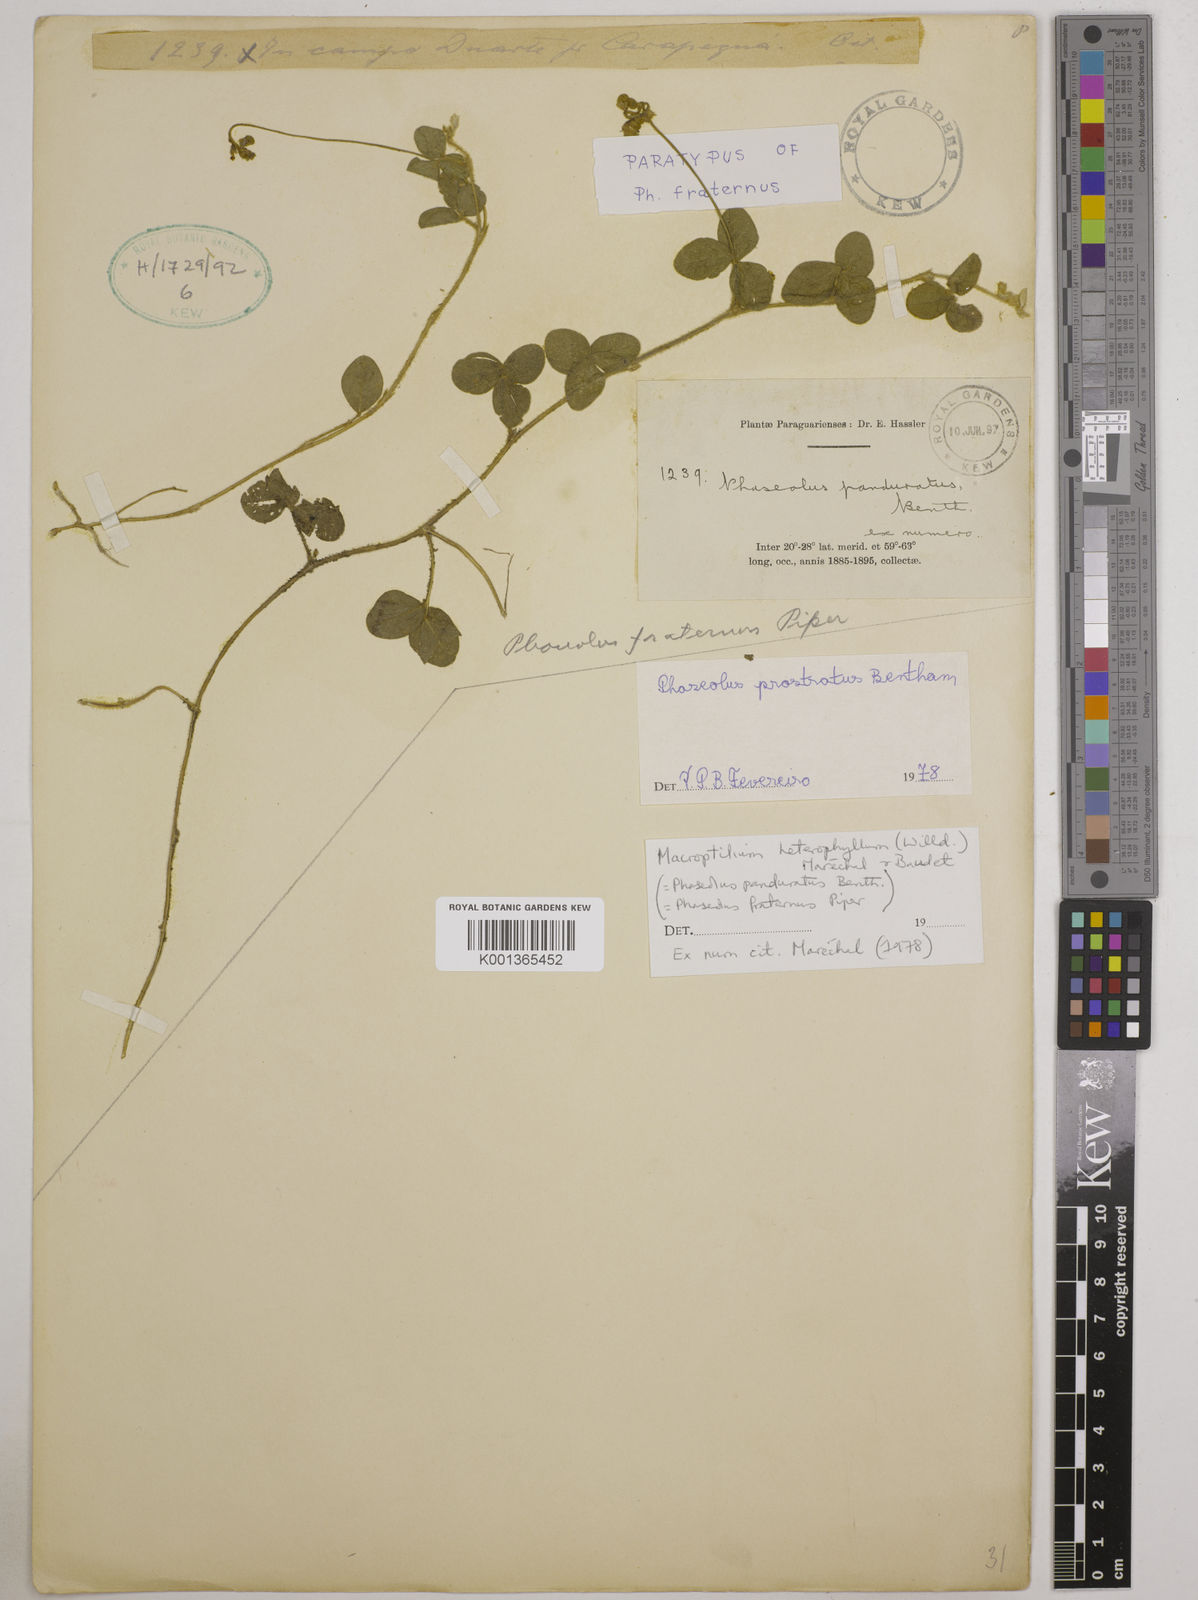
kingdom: Plantae
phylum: Tracheophyta
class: Magnoliopsida
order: Fabales
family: Fabaceae
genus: Macroptilium
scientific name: Macroptilium gibbosifolium
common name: Variableleaf bushbean
